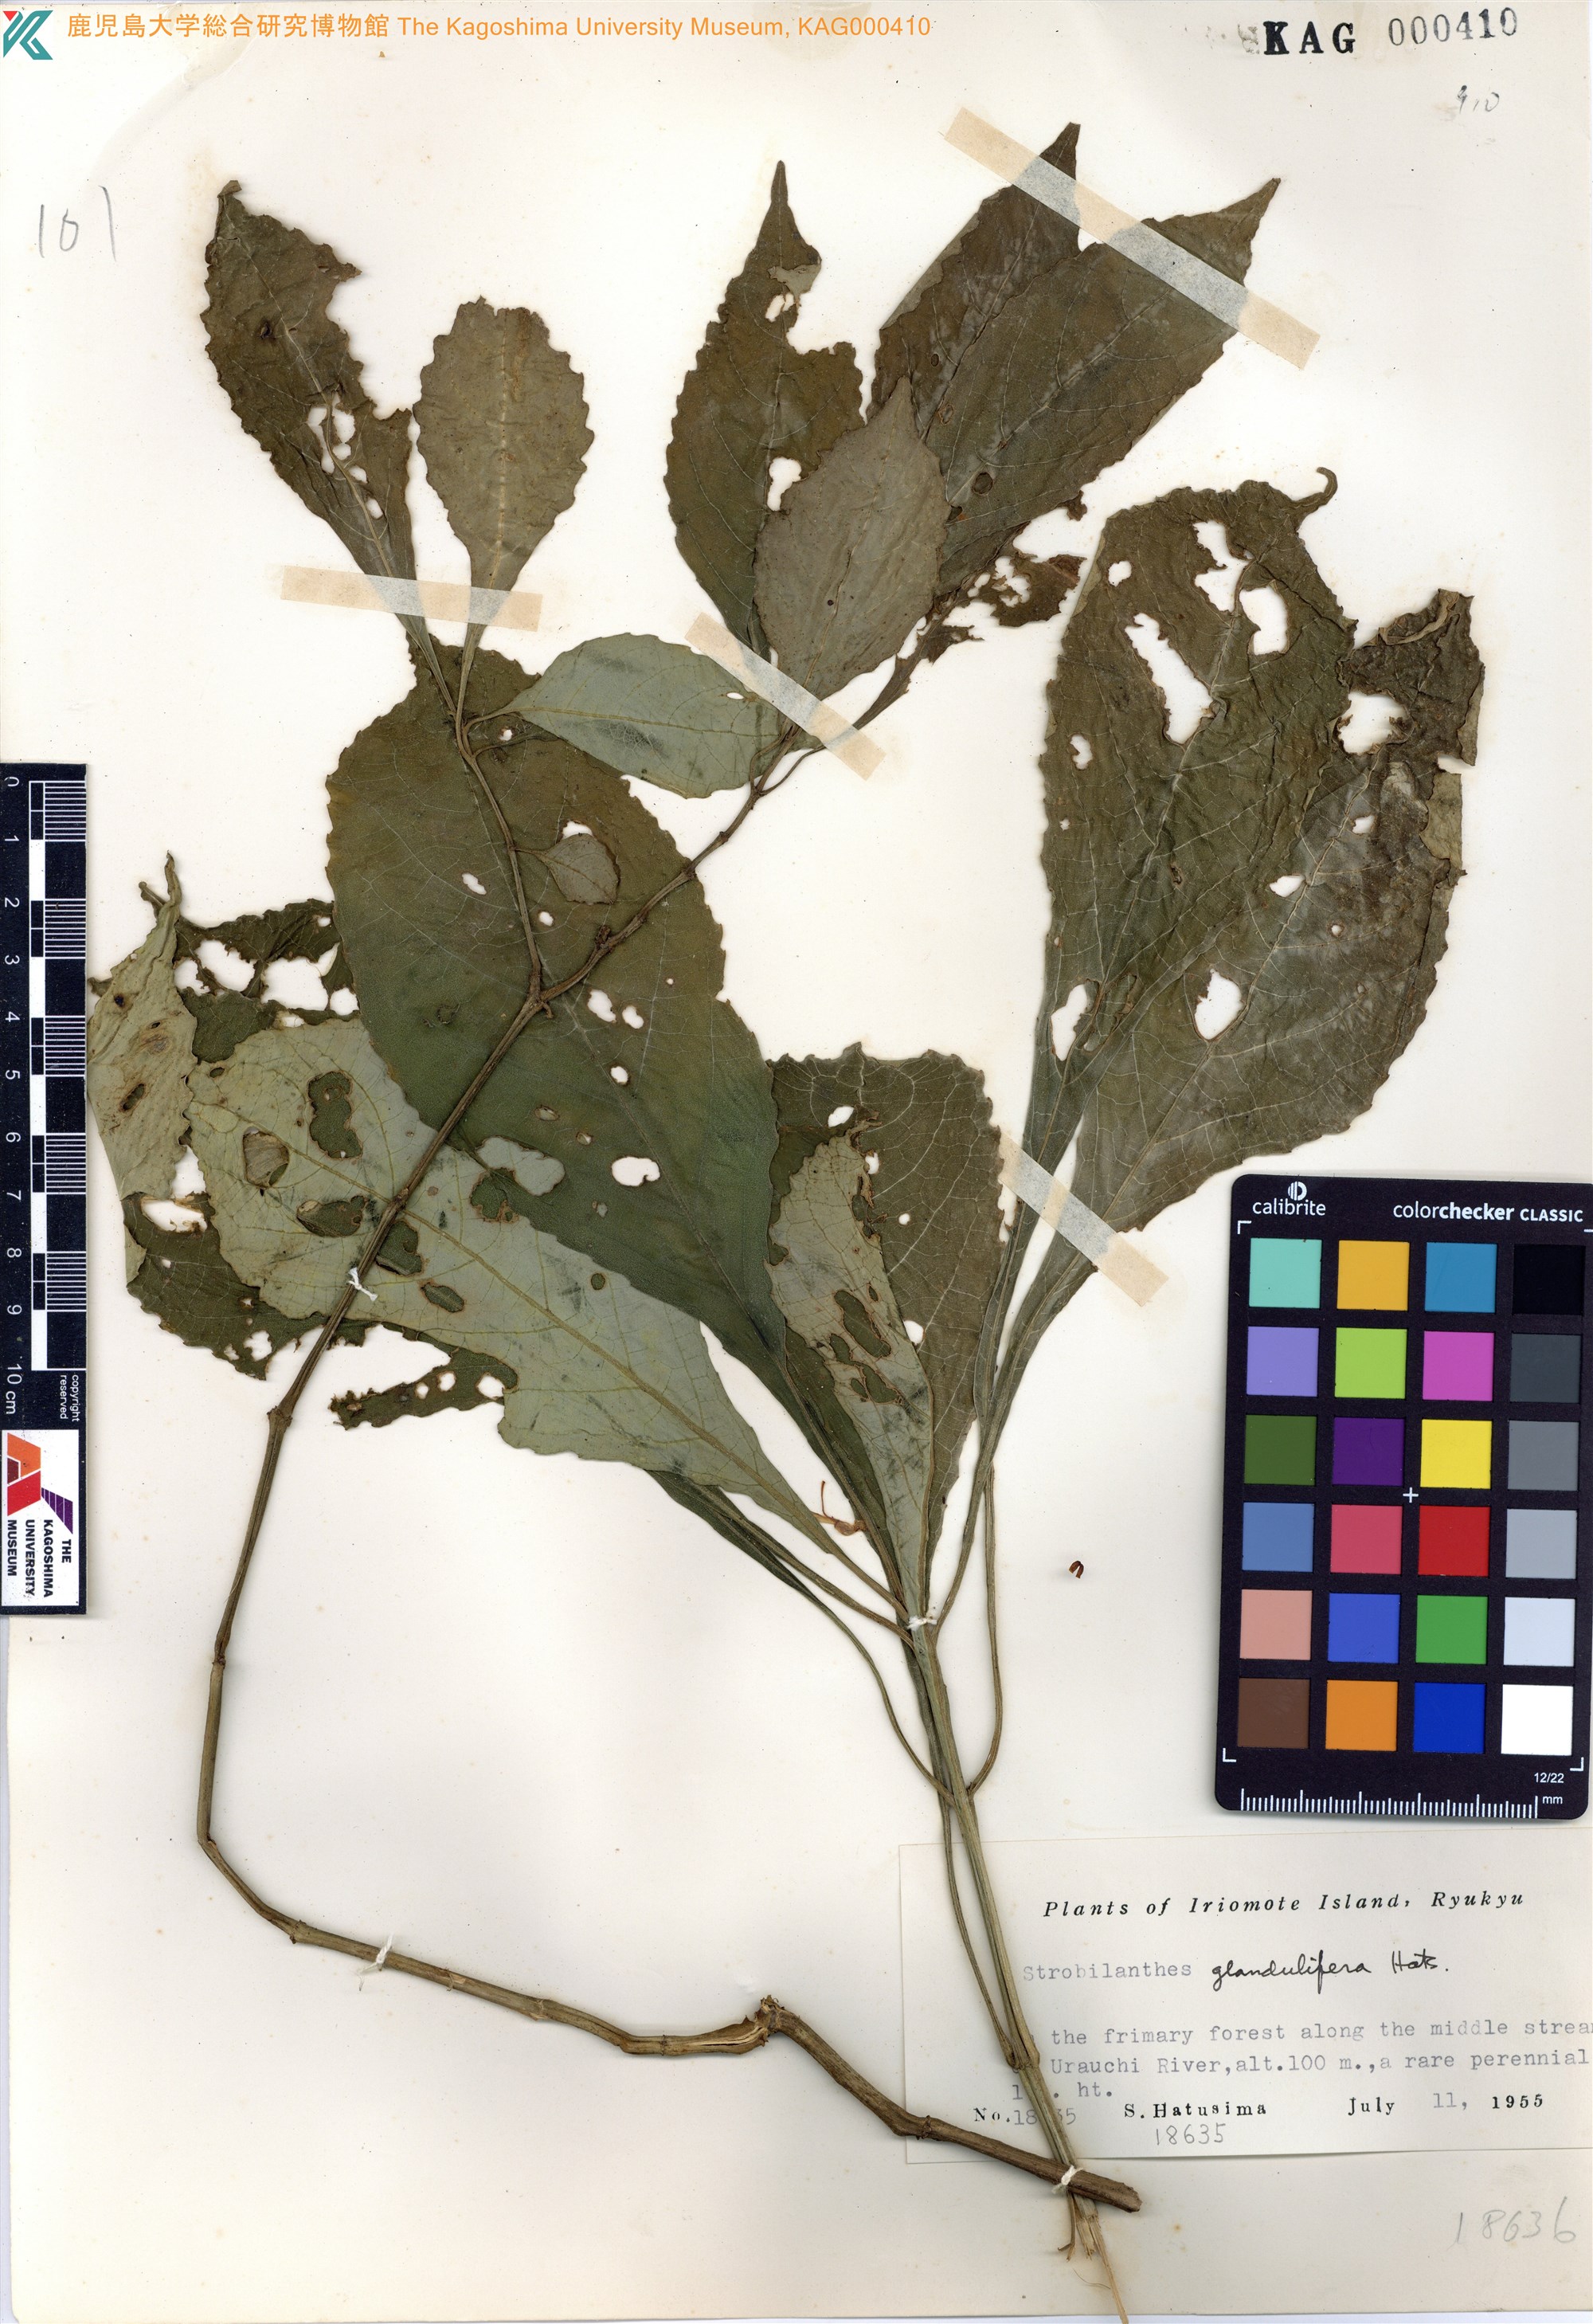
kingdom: Plantae
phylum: Tracheophyta
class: Magnoliopsida
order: Lamiales
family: Acanthaceae
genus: Strobilanthes
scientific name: Strobilanthes flexicaulis
